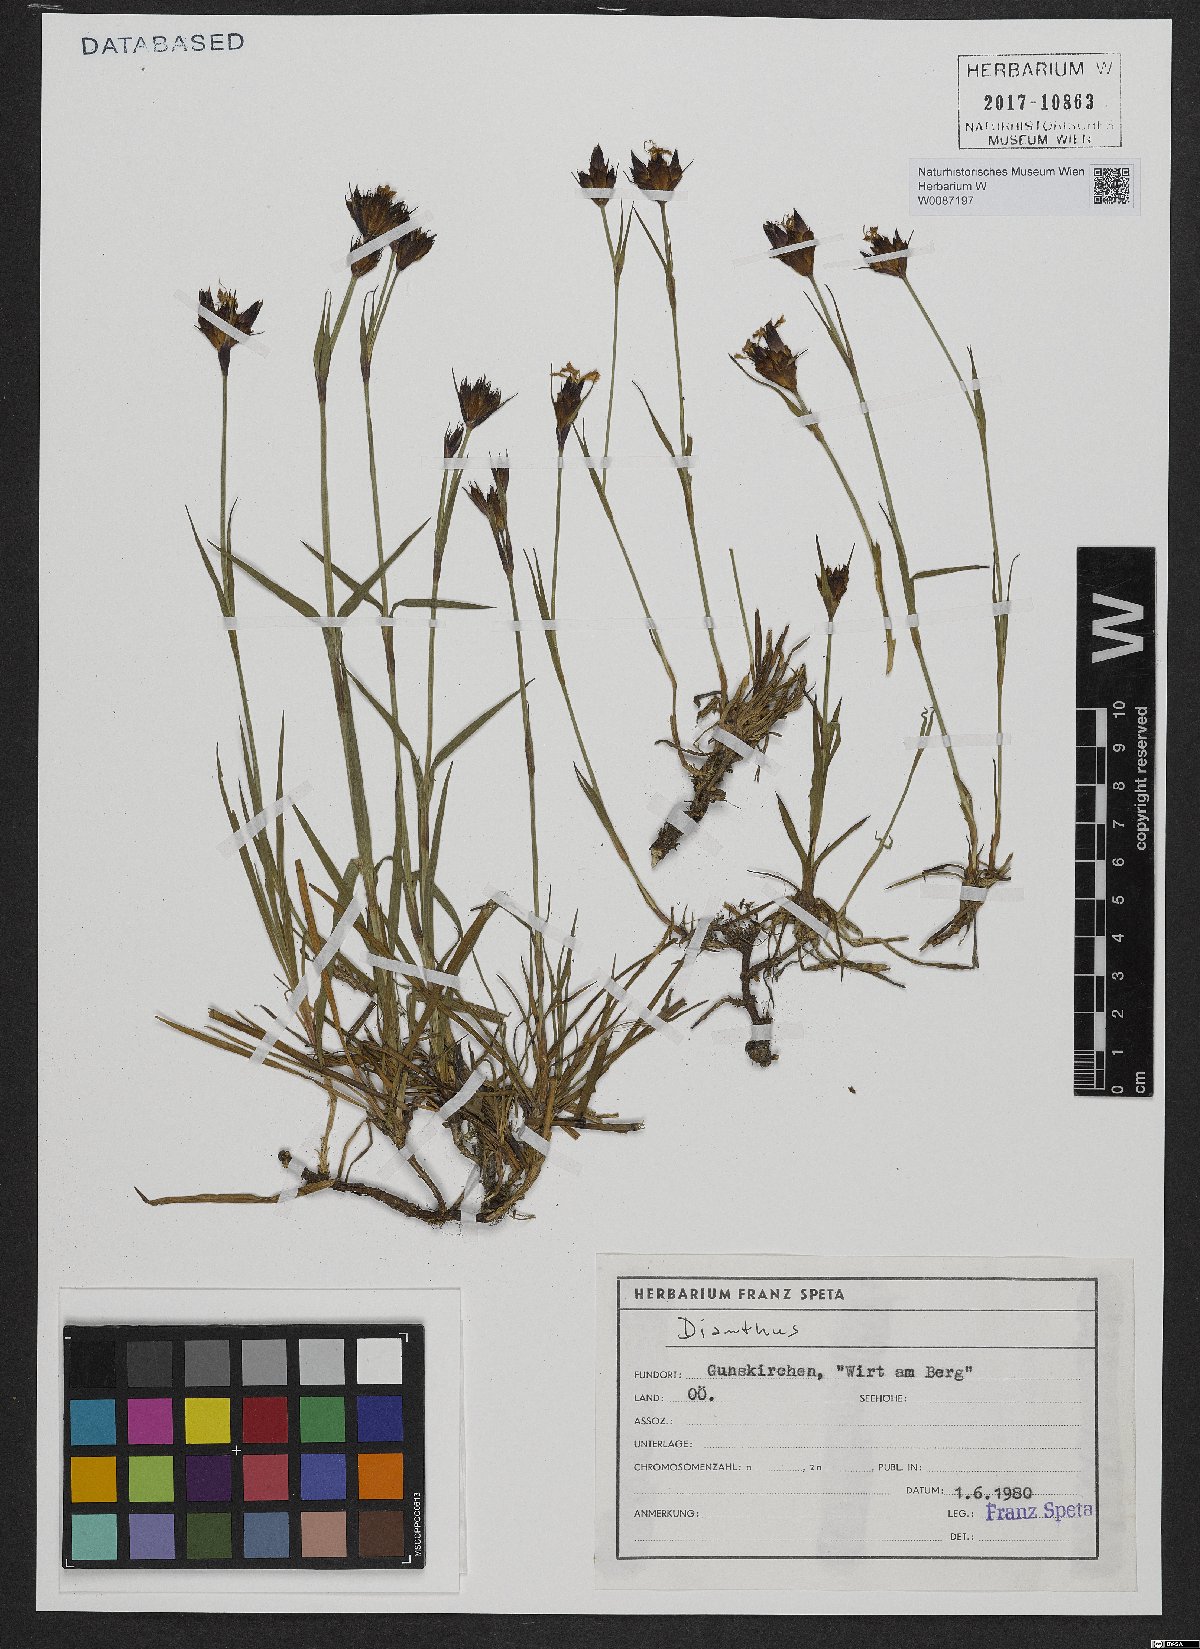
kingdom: Plantae
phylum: Tracheophyta
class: Magnoliopsida
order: Caryophyllales
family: Caryophyllaceae
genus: Dianthus
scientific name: Dianthus
